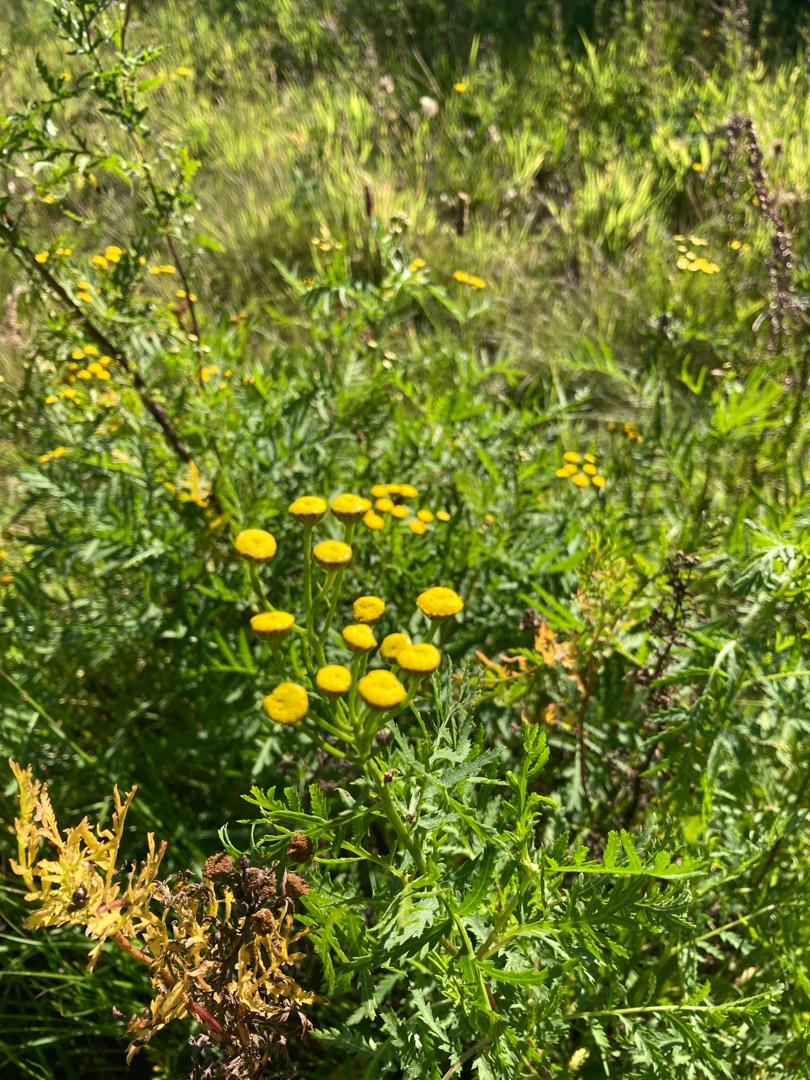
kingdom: Plantae
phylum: Tracheophyta
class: Magnoliopsida
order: Asterales
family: Asteraceae
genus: Tanacetum
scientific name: Tanacetum vulgare
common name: Rejnfan
